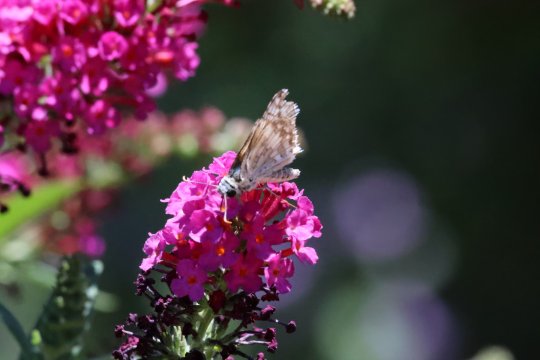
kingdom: Animalia
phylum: Arthropoda
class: Insecta
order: Lepidoptera
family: Hesperiidae
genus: Burnsius
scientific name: Burnsius communis
